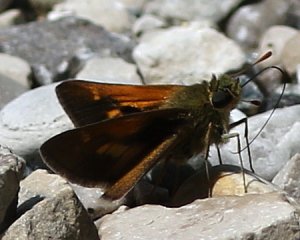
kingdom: Animalia
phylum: Arthropoda
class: Insecta
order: Lepidoptera
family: Hesperiidae
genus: Polites
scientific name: Polites
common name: Crossline Skipper
